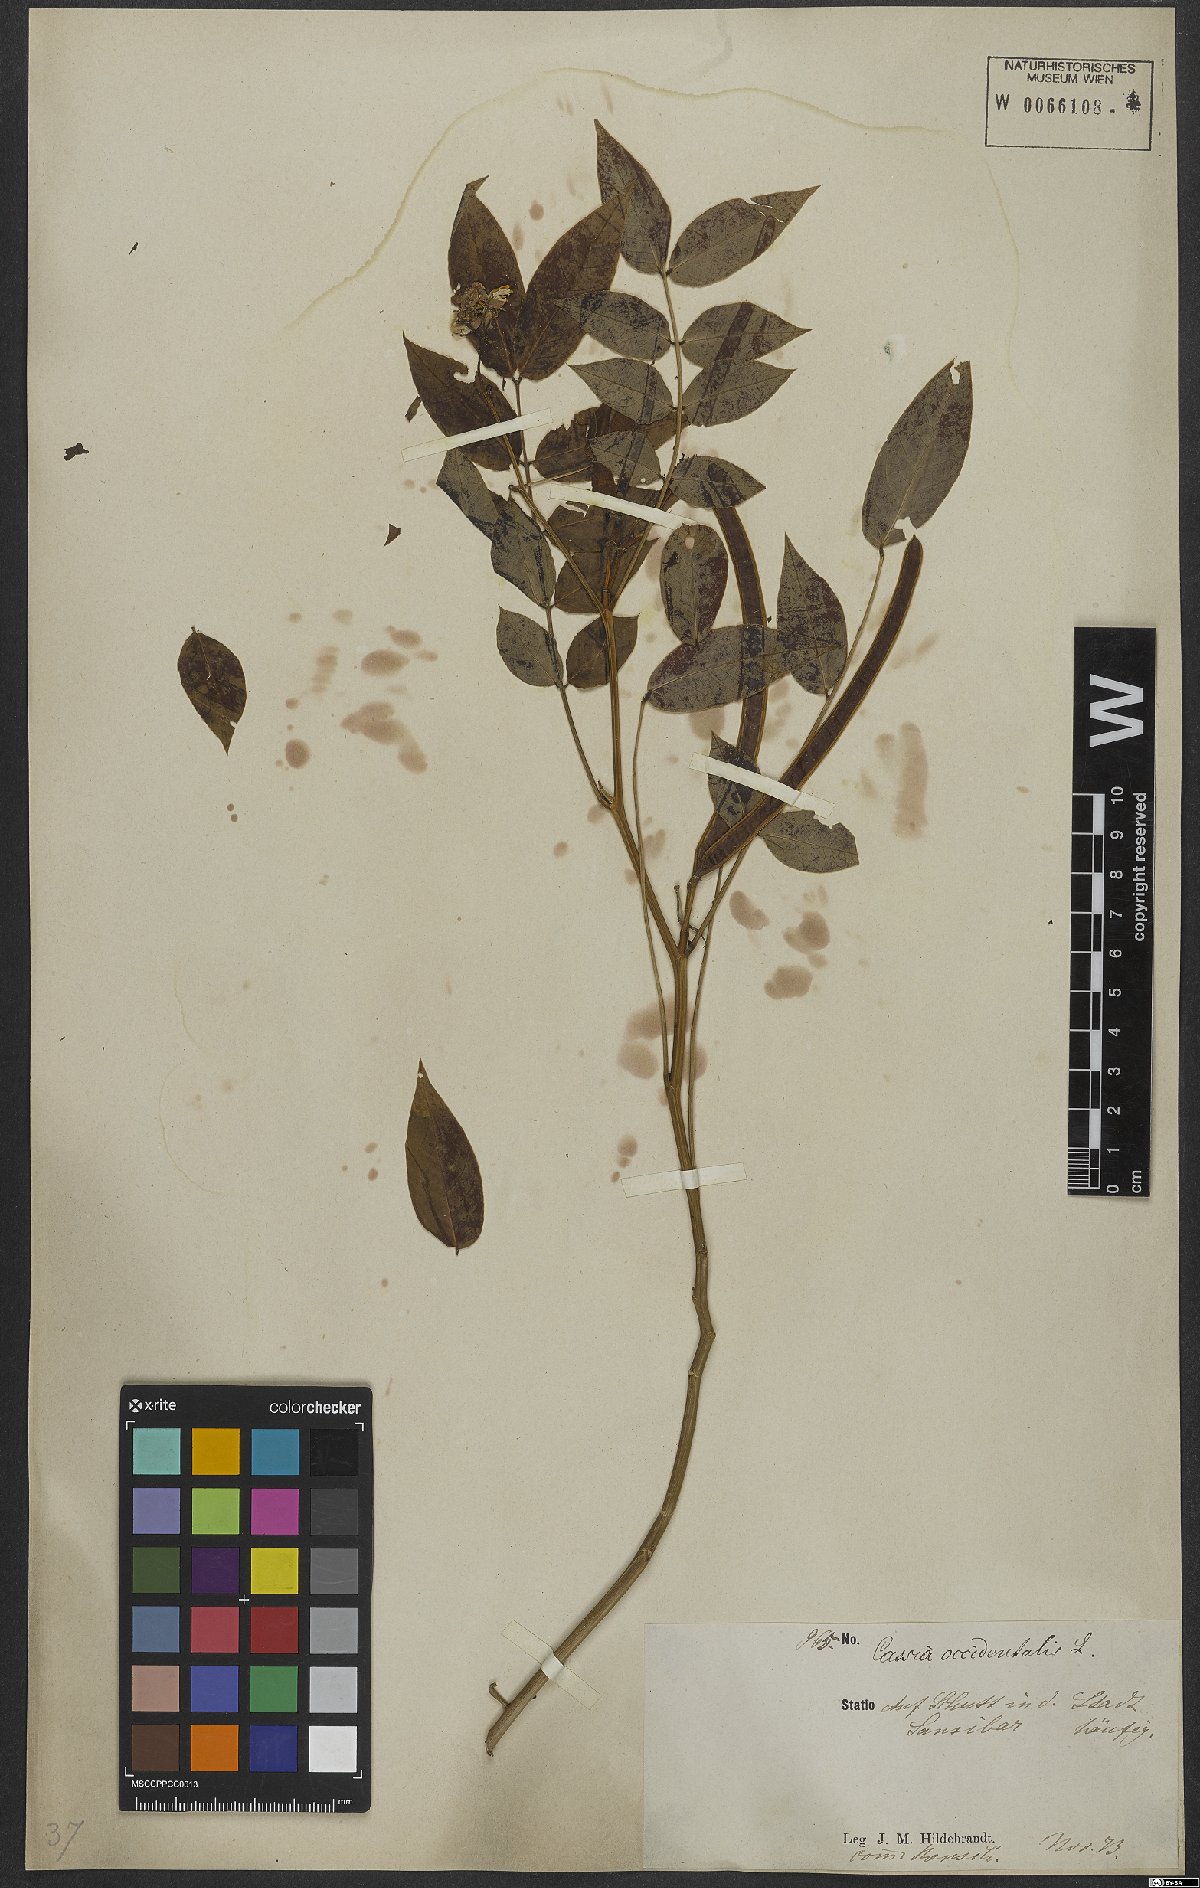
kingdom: Plantae
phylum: Tracheophyta
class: Magnoliopsida
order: Fabales
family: Fabaceae
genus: Senna
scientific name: Senna occidentalis
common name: Septicweed
